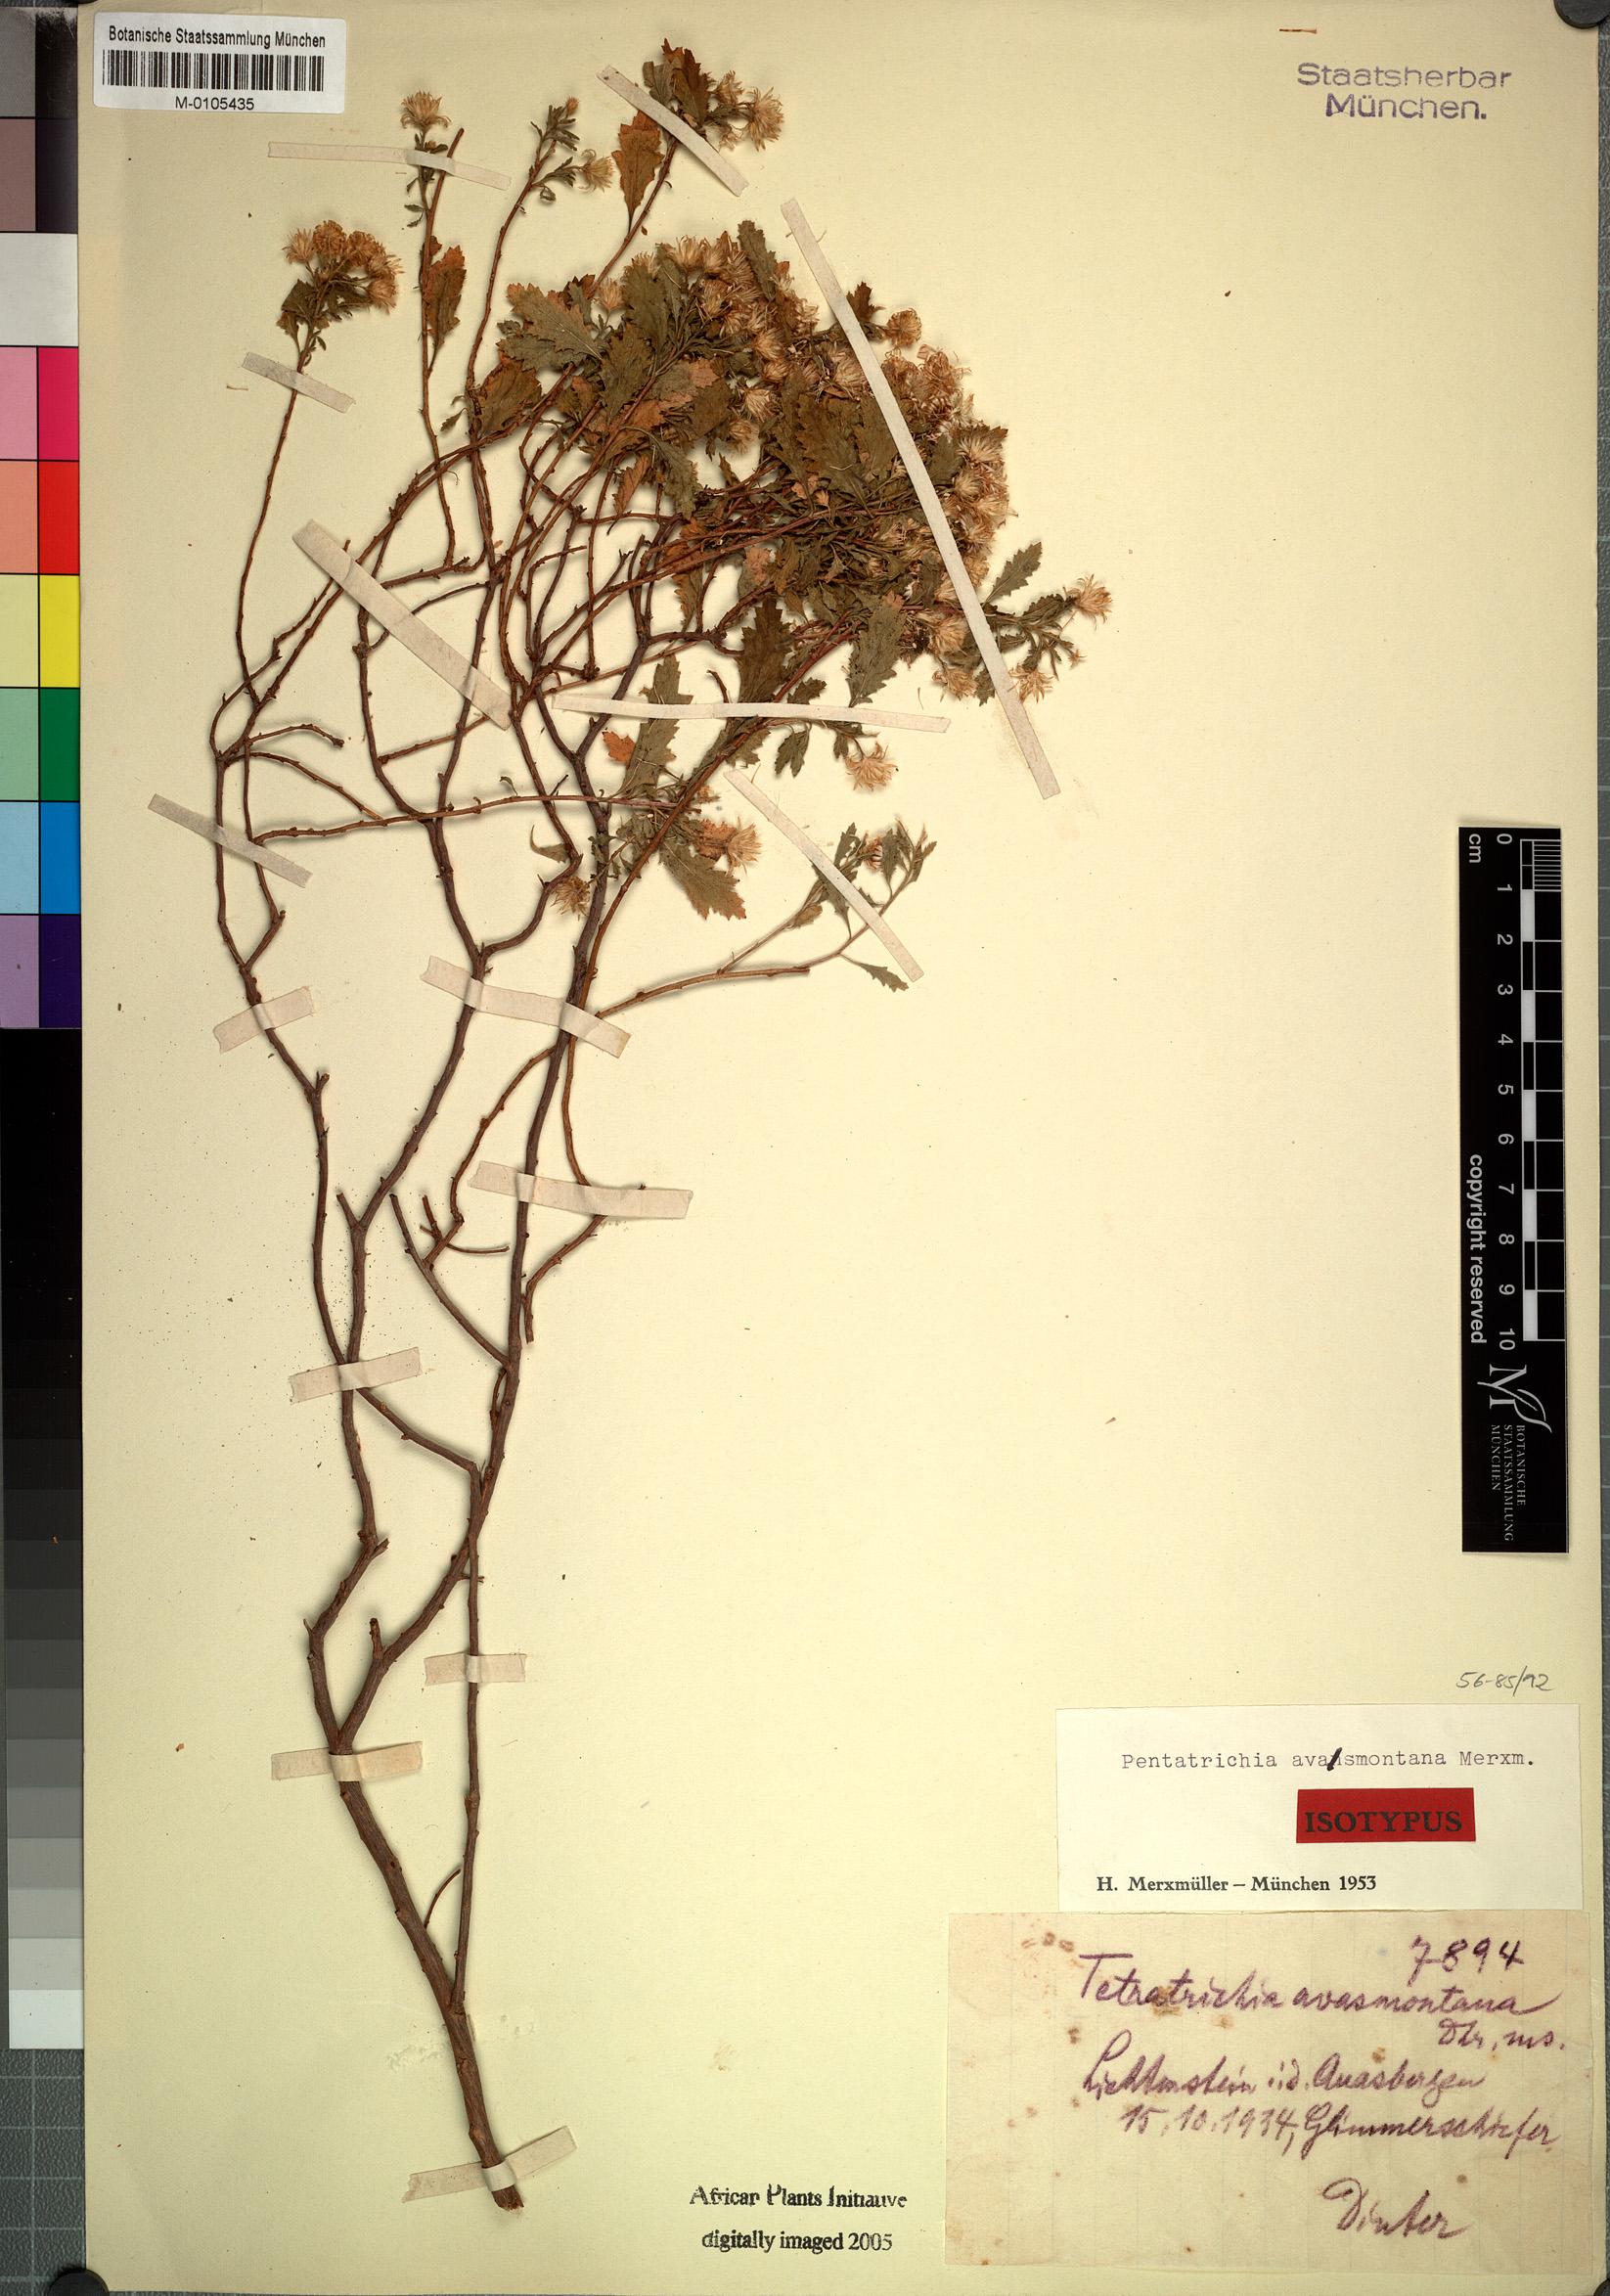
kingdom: Plantae
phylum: Tracheophyta
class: Magnoliopsida
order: Asterales
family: Asteraceae
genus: Pentatrichia
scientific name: Pentatrichia rehmii
